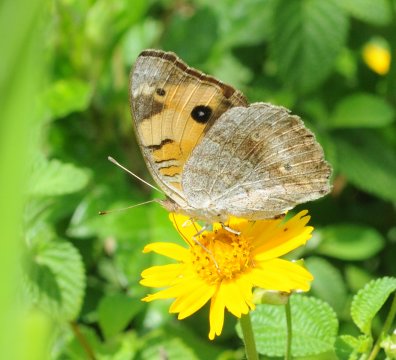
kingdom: Animalia
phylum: Arthropoda
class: Insecta
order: Lepidoptera
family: Nymphalidae
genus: Junonia
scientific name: Junonia hierta
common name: Yellow Pansy
